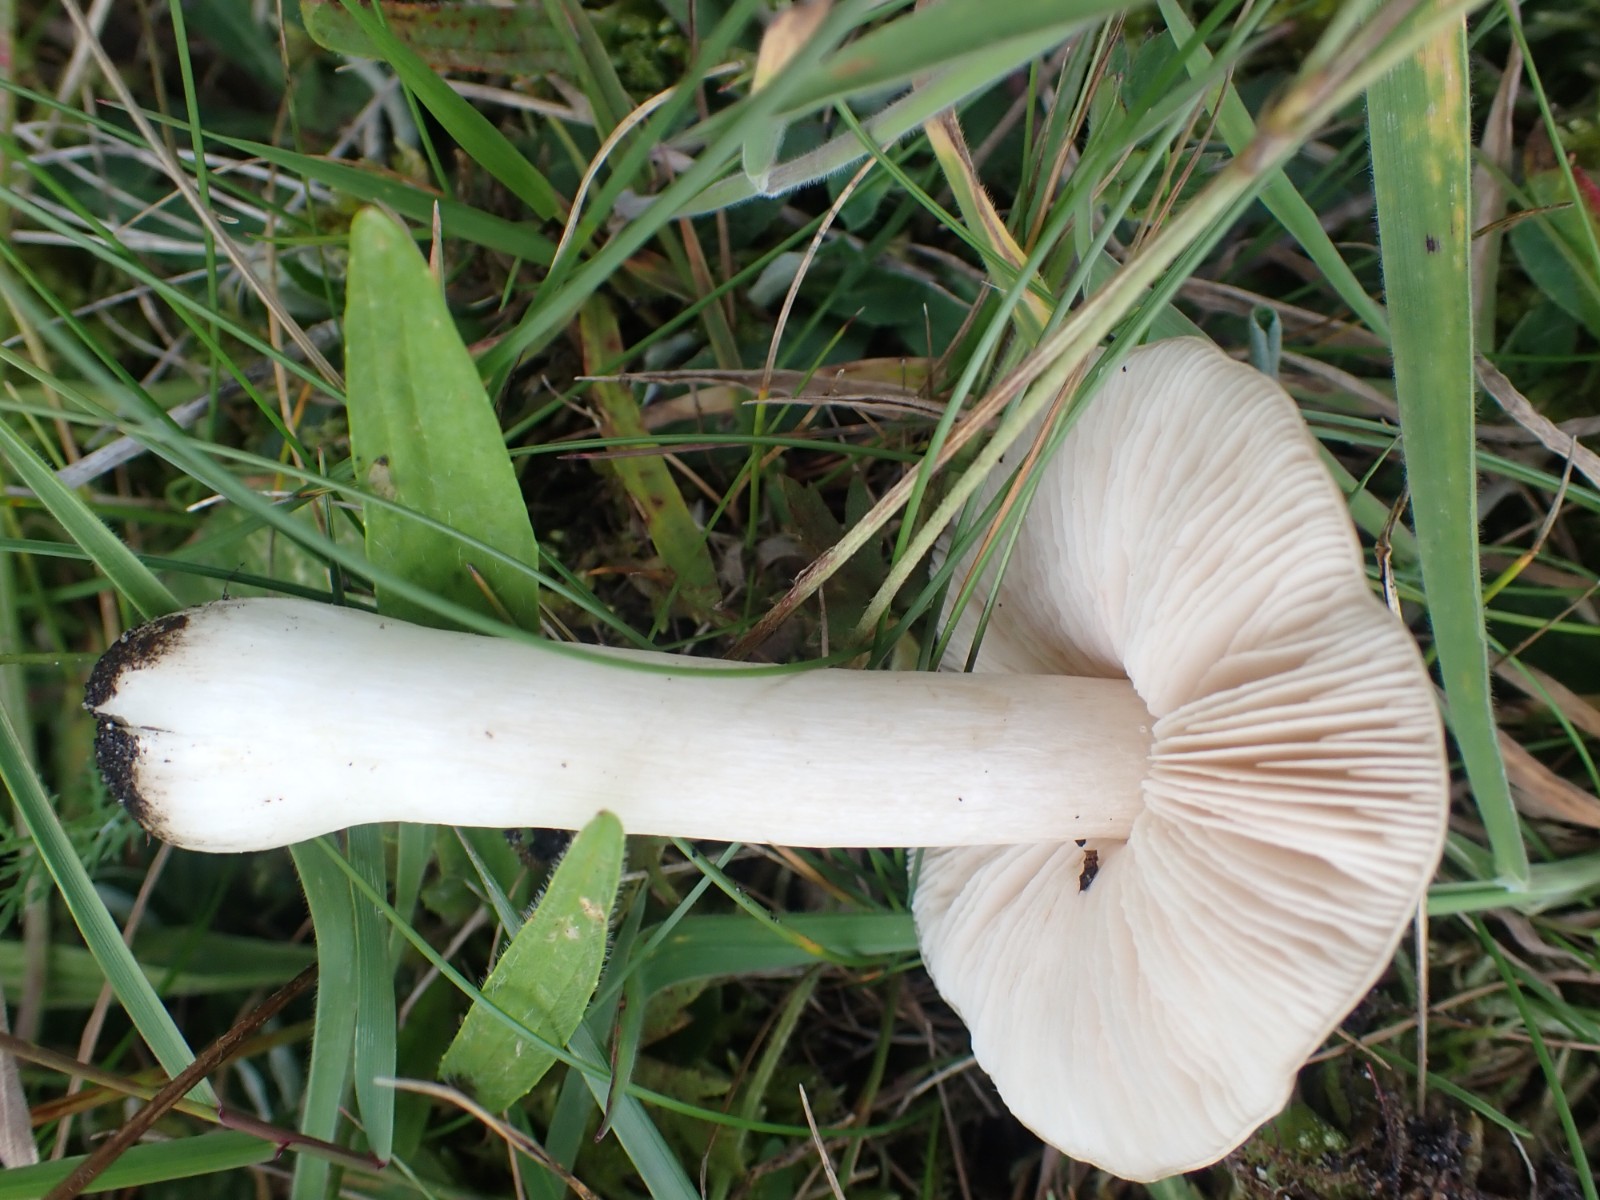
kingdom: Fungi
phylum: Basidiomycota
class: Agaricomycetes
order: Agaricales
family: Entolomataceae
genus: Entoloma
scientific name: Entoloma prunuloides
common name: mel-rødblad
